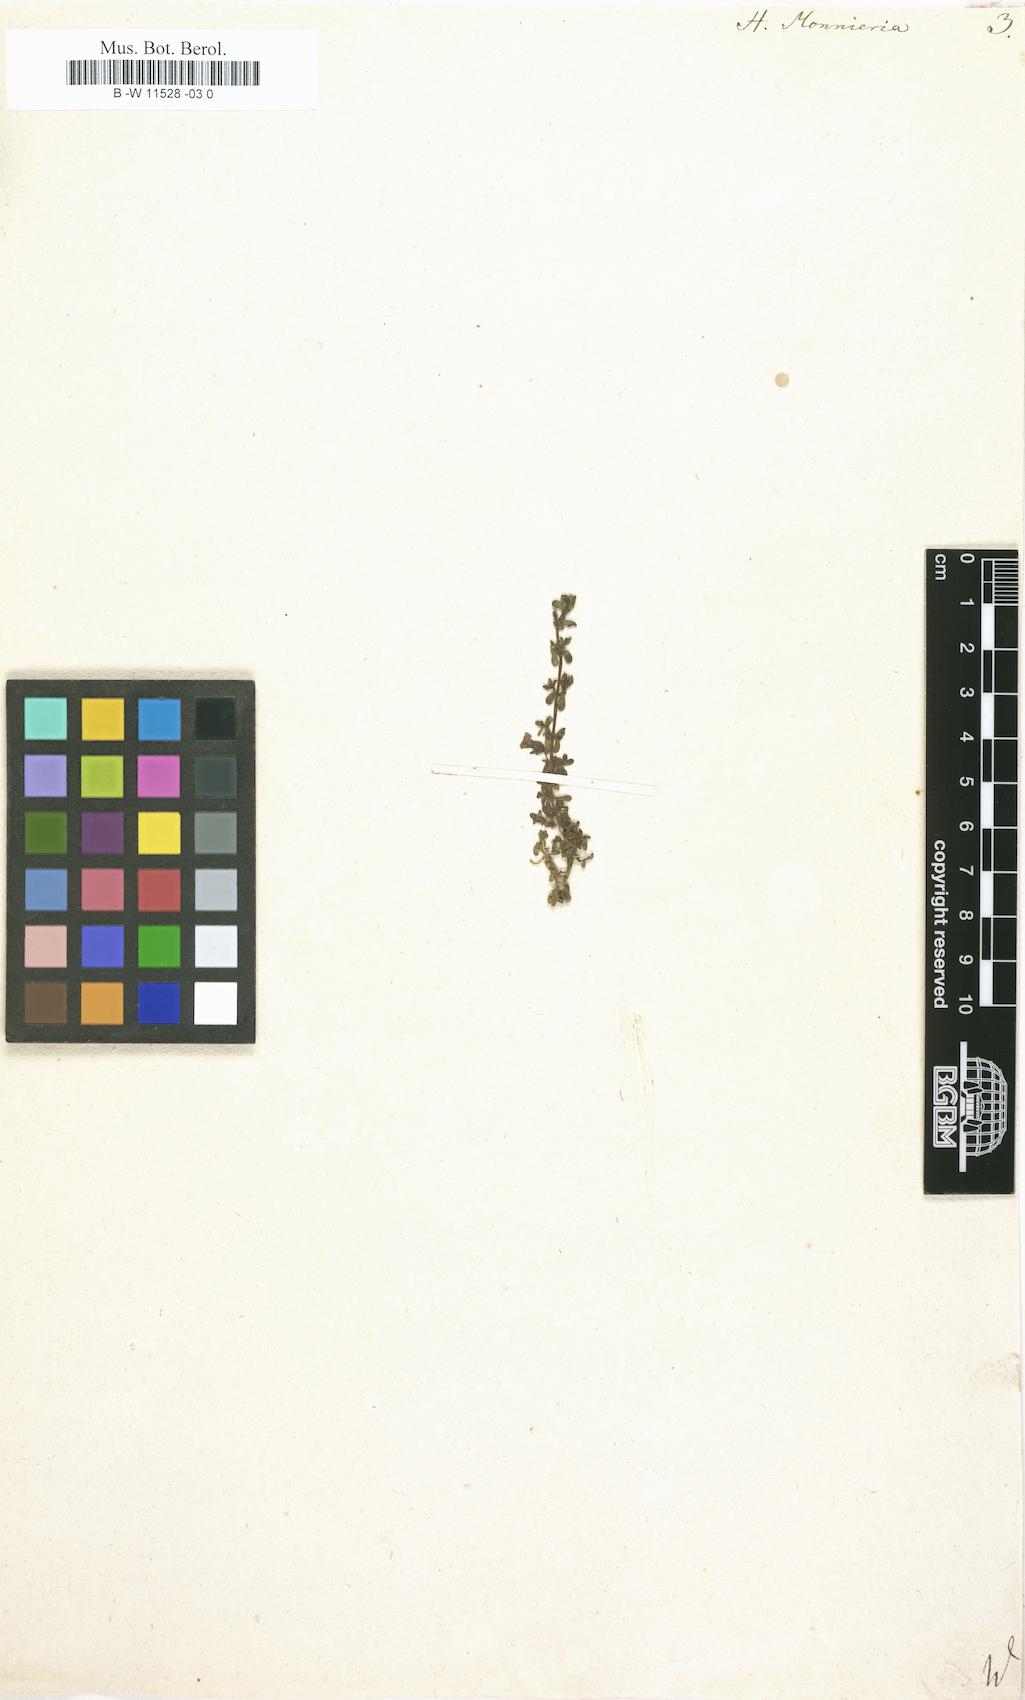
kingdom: Plantae
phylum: Tracheophyta
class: Magnoliopsida
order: Lamiales
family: Plantaginaceae
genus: Bacopa
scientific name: Bacopa monnieri
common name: Indian-pennywort
